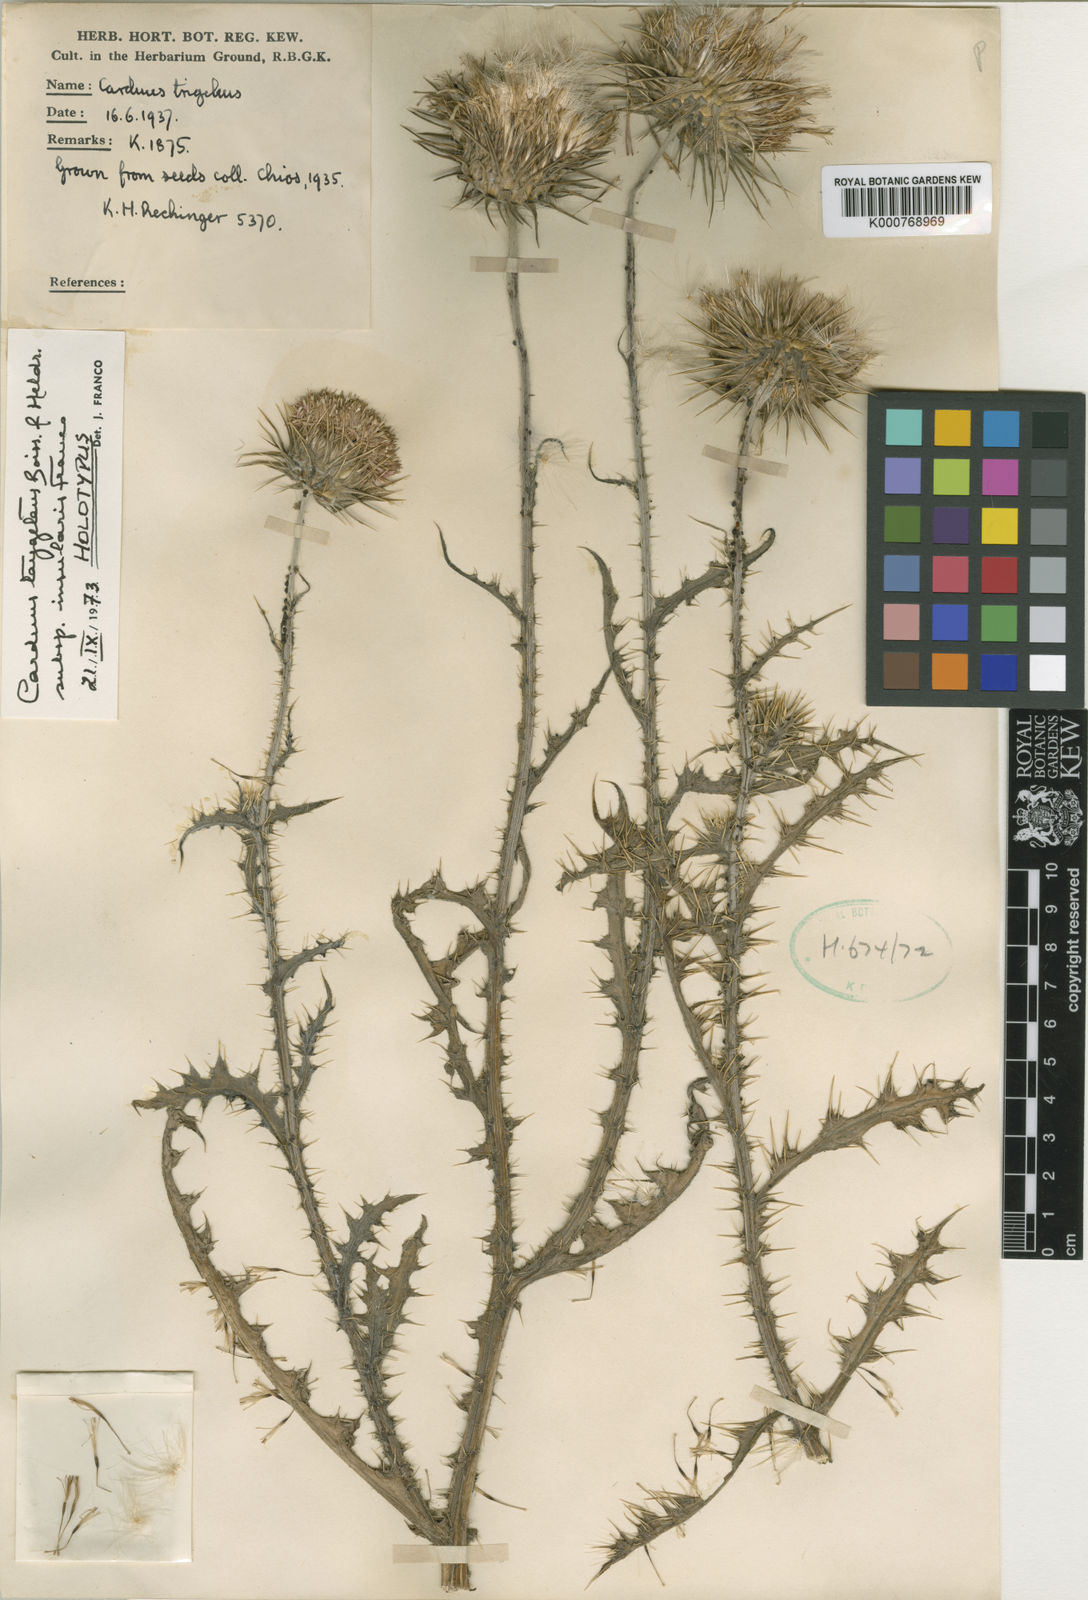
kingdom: Plantae
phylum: Tracheophyta
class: Magnoliopsida
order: Asterales
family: Asteraceae
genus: Carduus
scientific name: Carduus nutans
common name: Musk thistle
